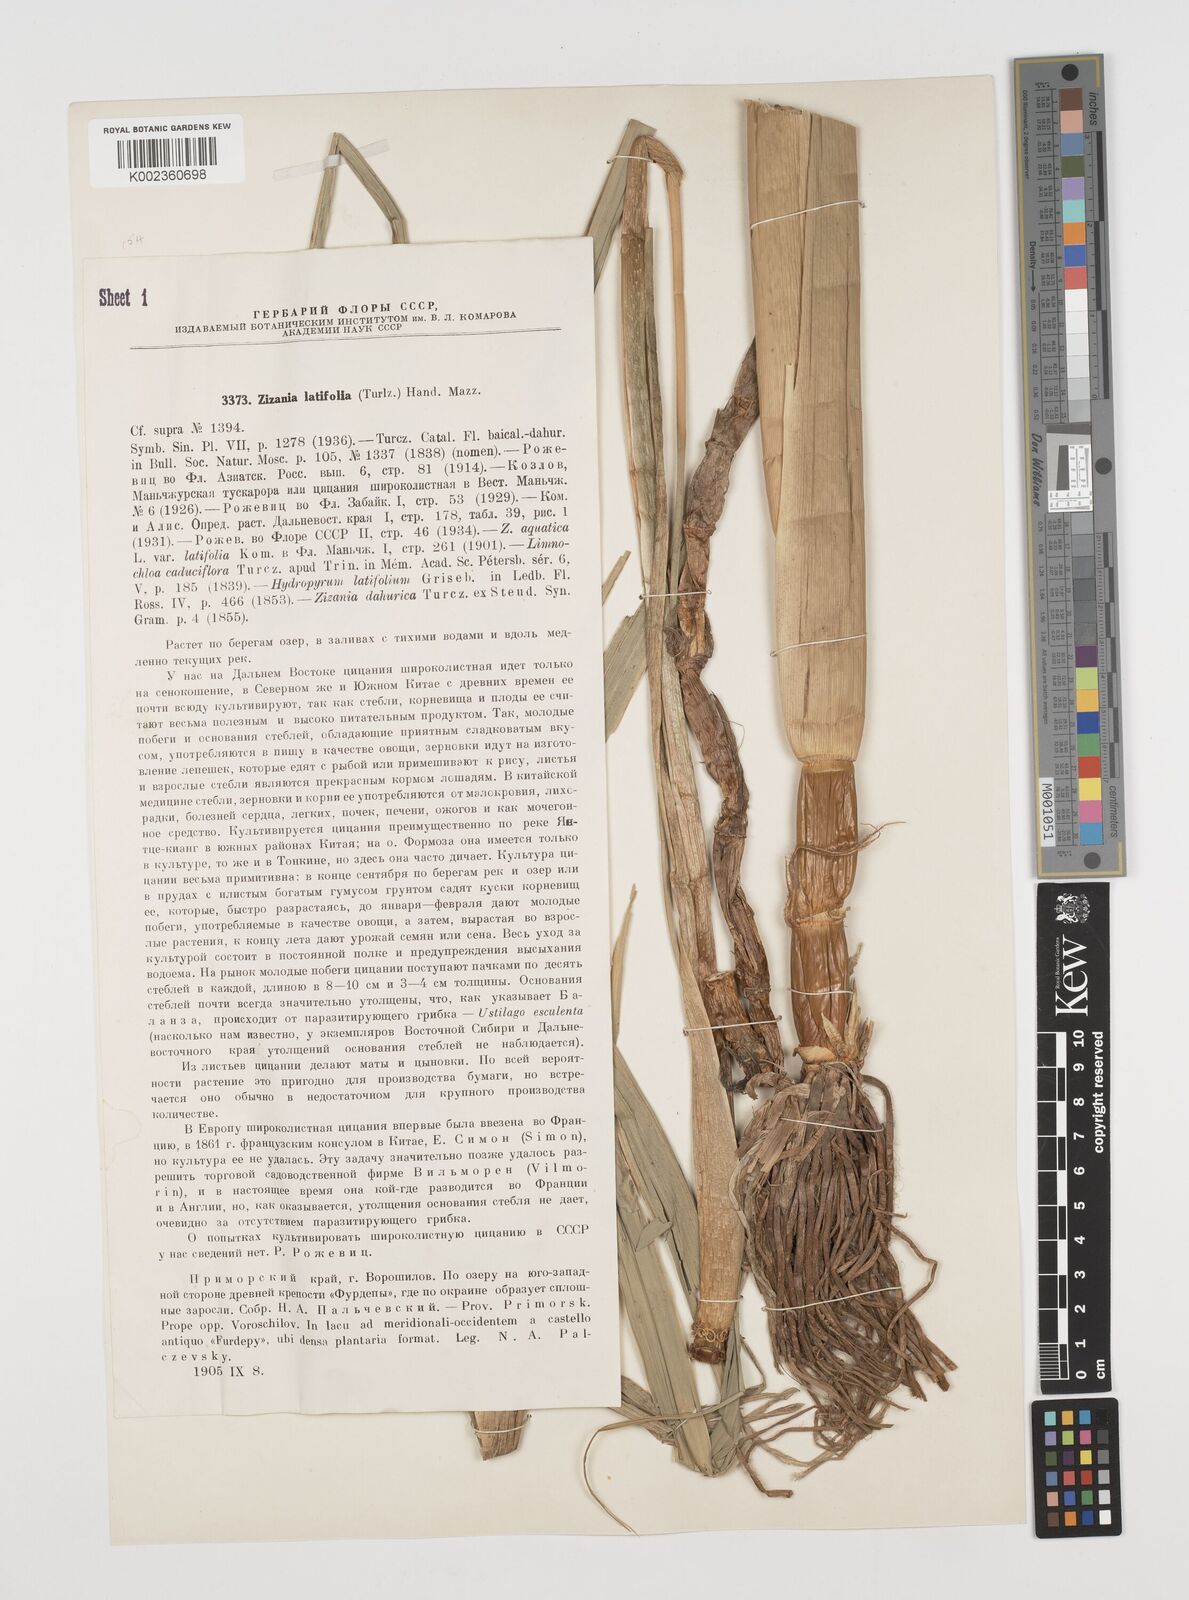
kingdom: Plantae
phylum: Tracheophyta
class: Liliopsida
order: Poales
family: Poaceae
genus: Zizania
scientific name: Zizania latifolia
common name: Manchurian wildrice
